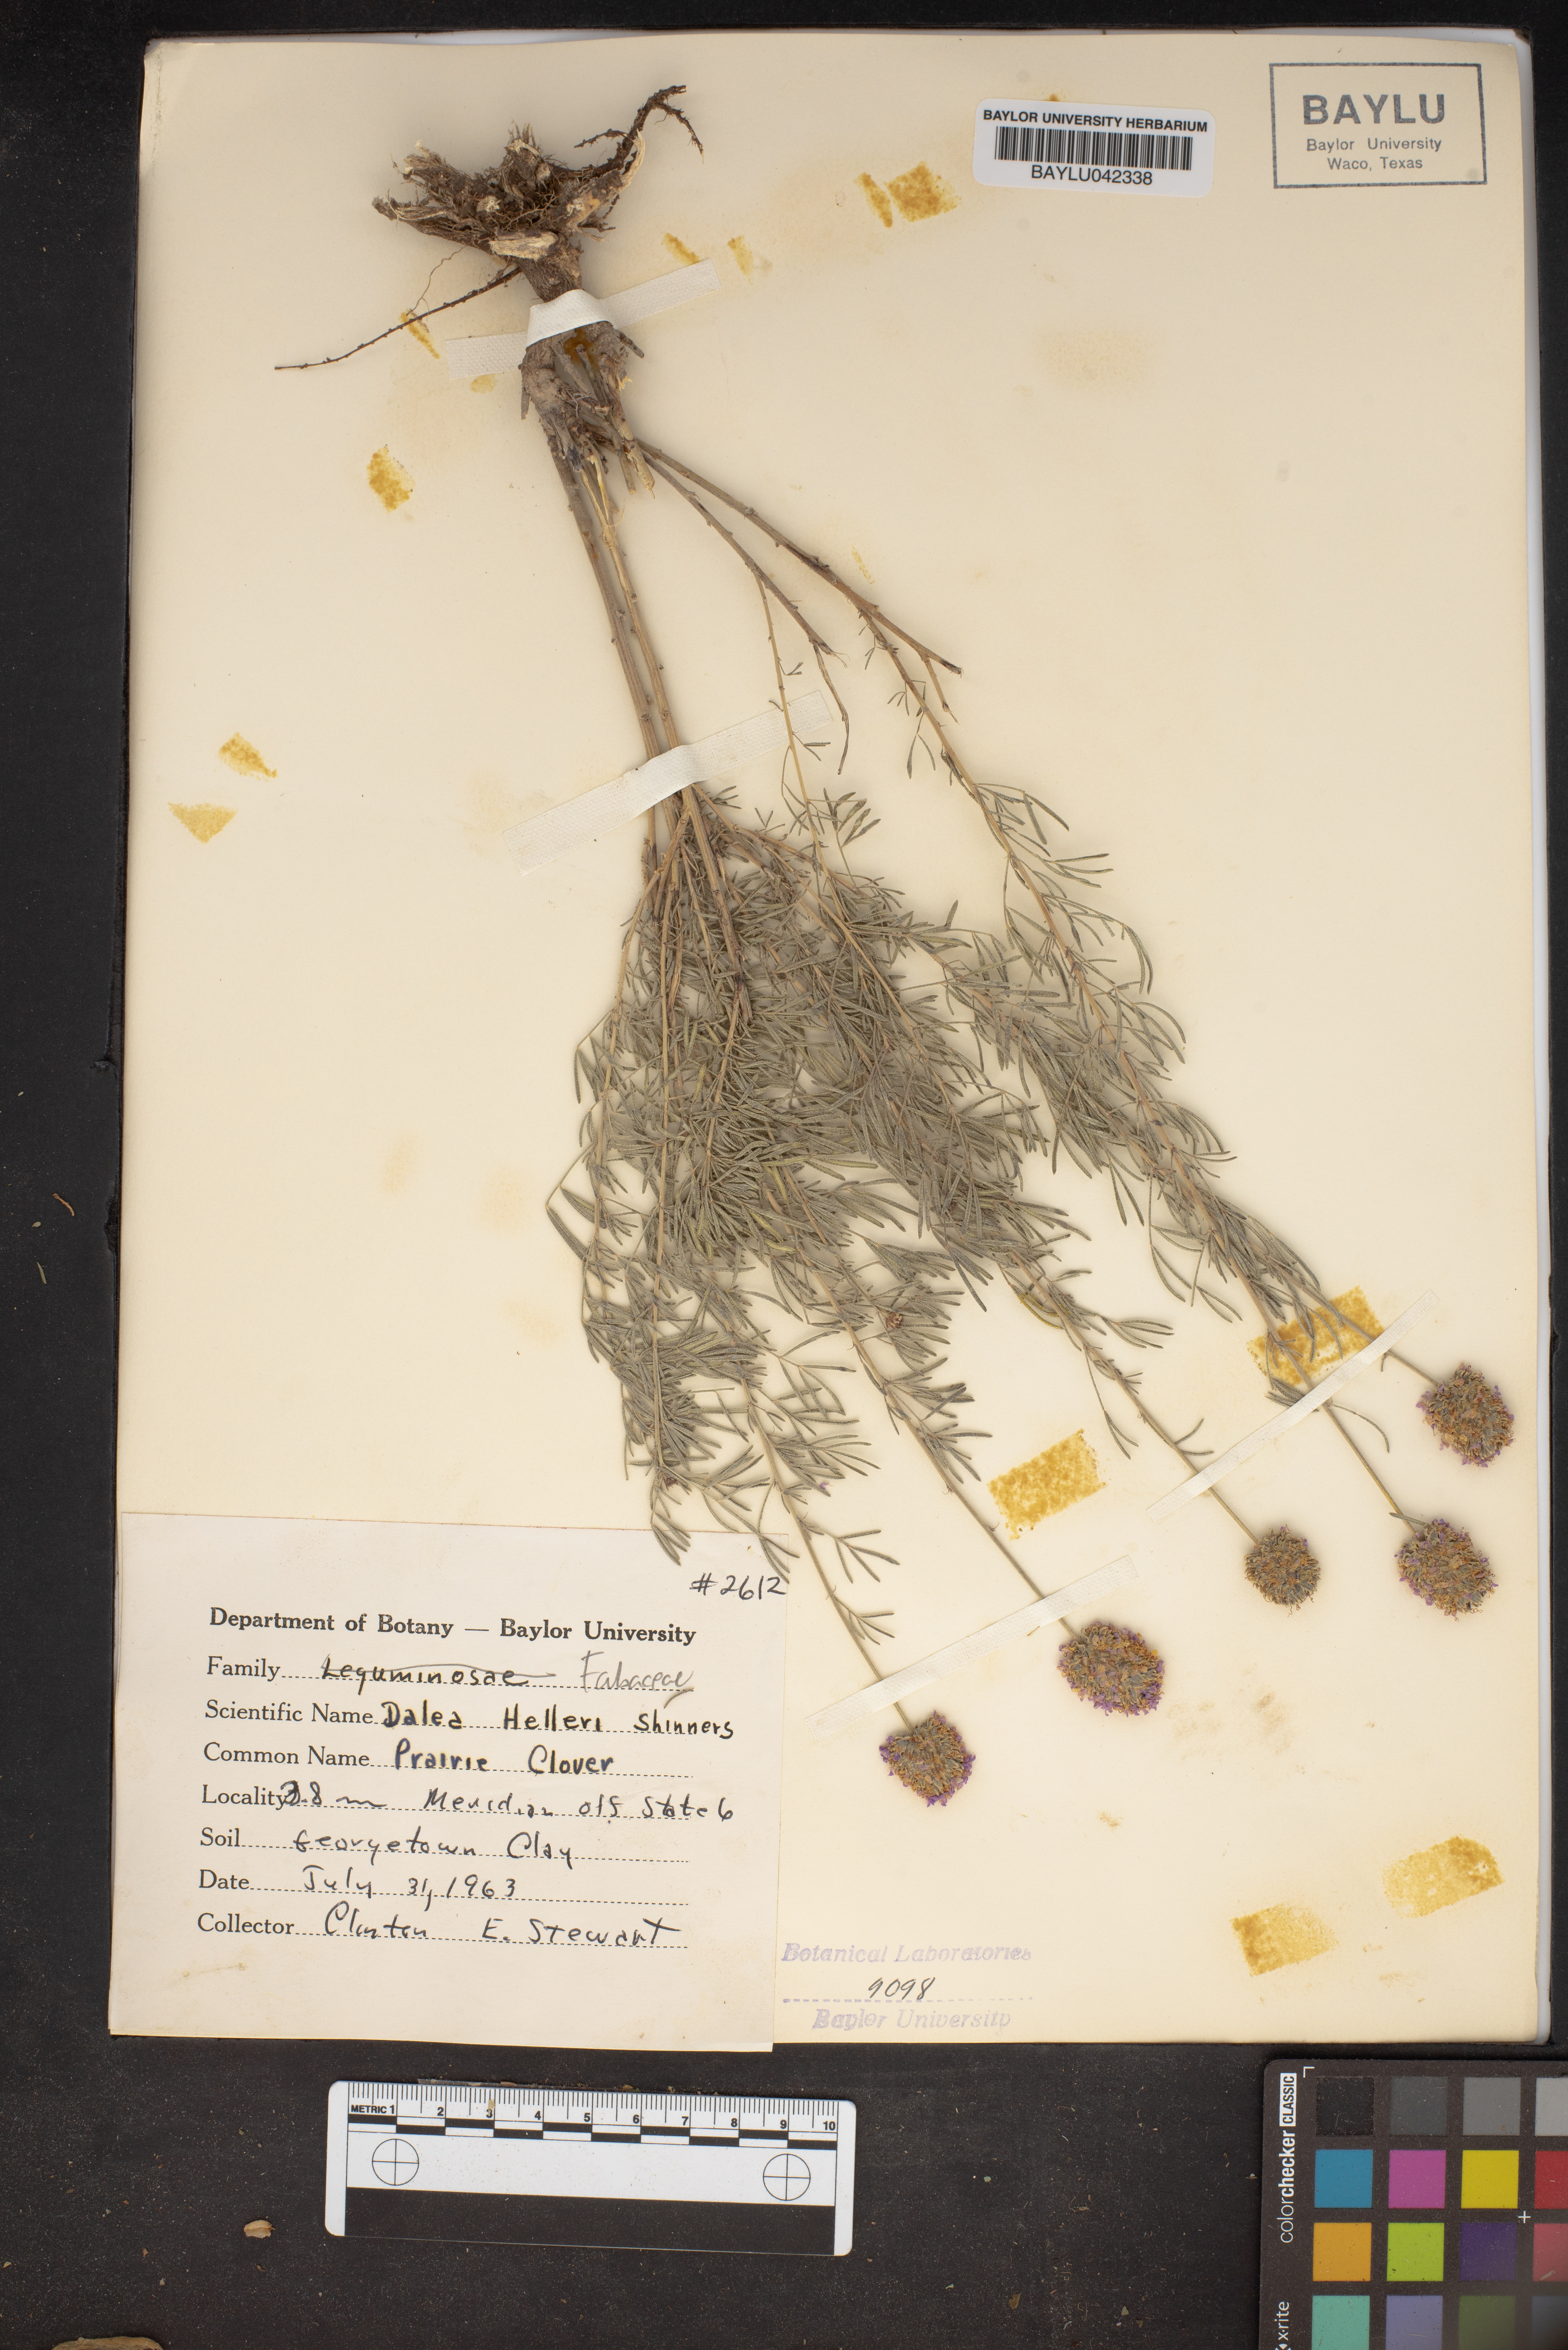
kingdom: Plantae
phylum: Tracheophyta
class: Magnoliopsida
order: Fabales
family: Fabaceae
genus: Dalea
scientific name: Dalea compacta
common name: Compact prairie-clover
